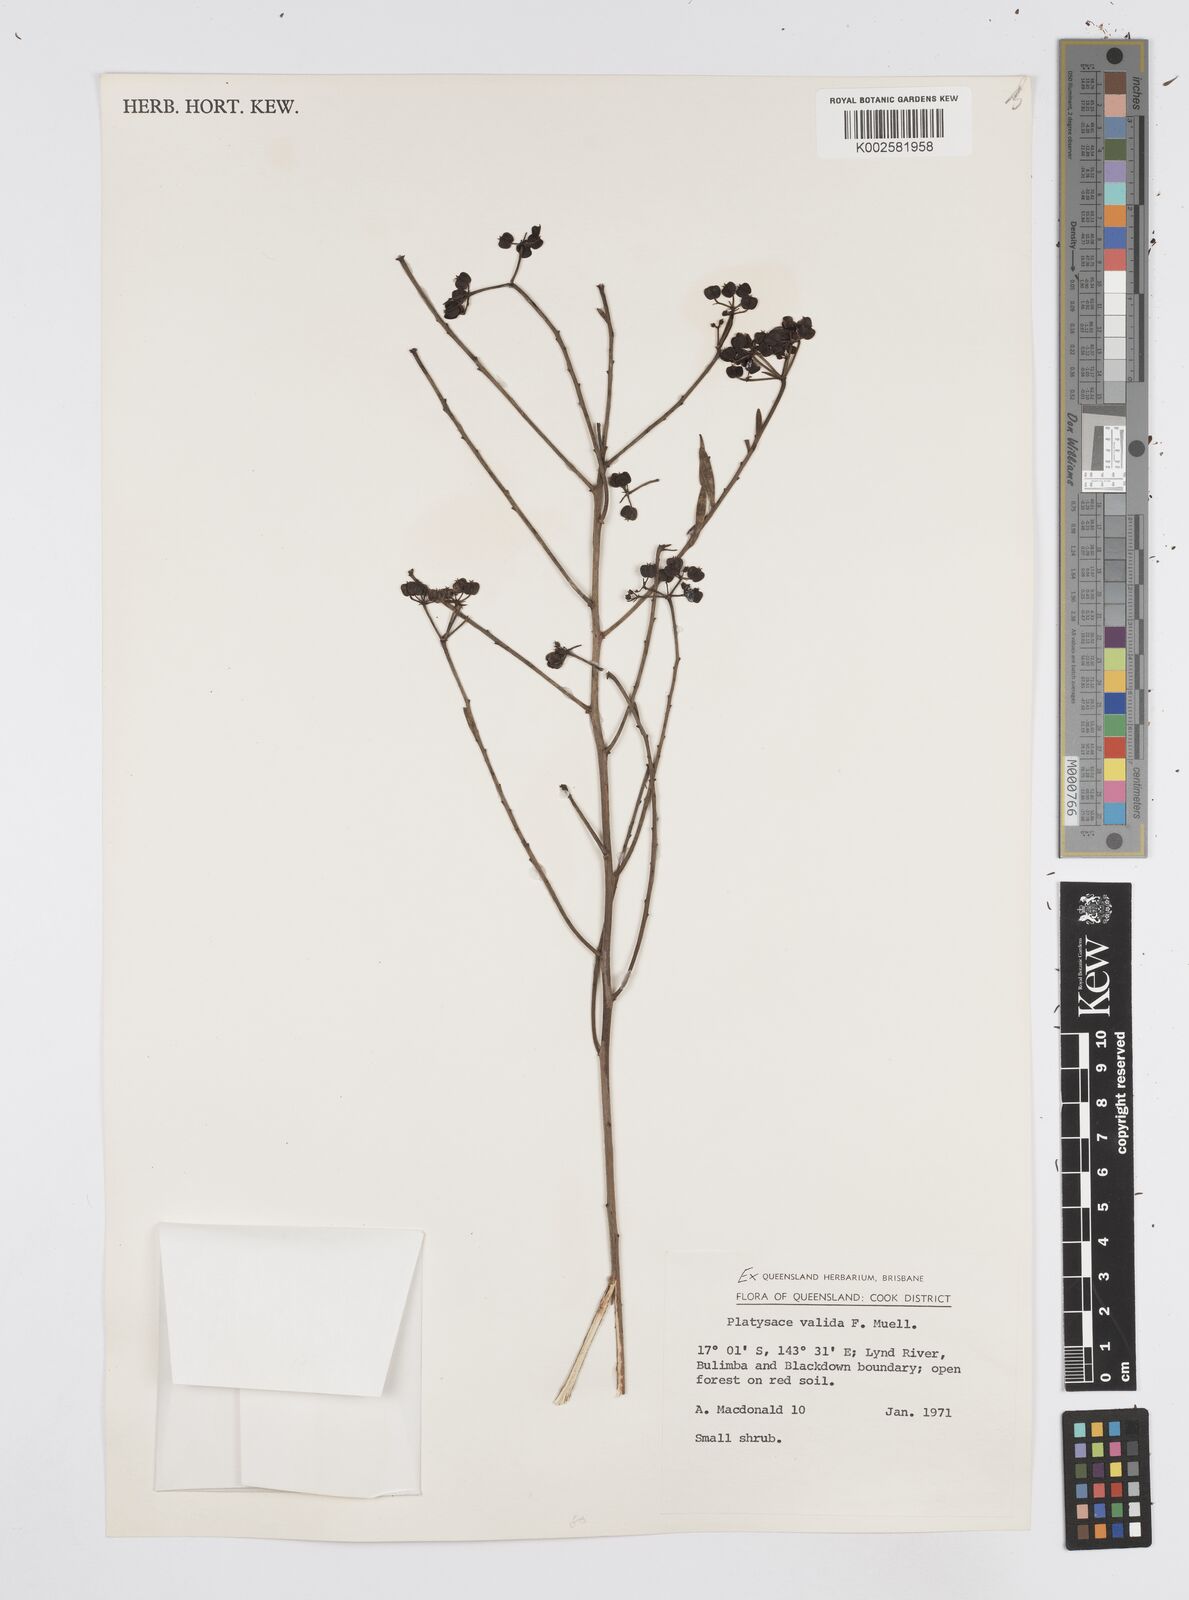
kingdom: Plantae
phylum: Tracheophyta
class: Magnoliopsida
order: Apiales
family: Apiaceae
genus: Platysace
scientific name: Platysace valida
